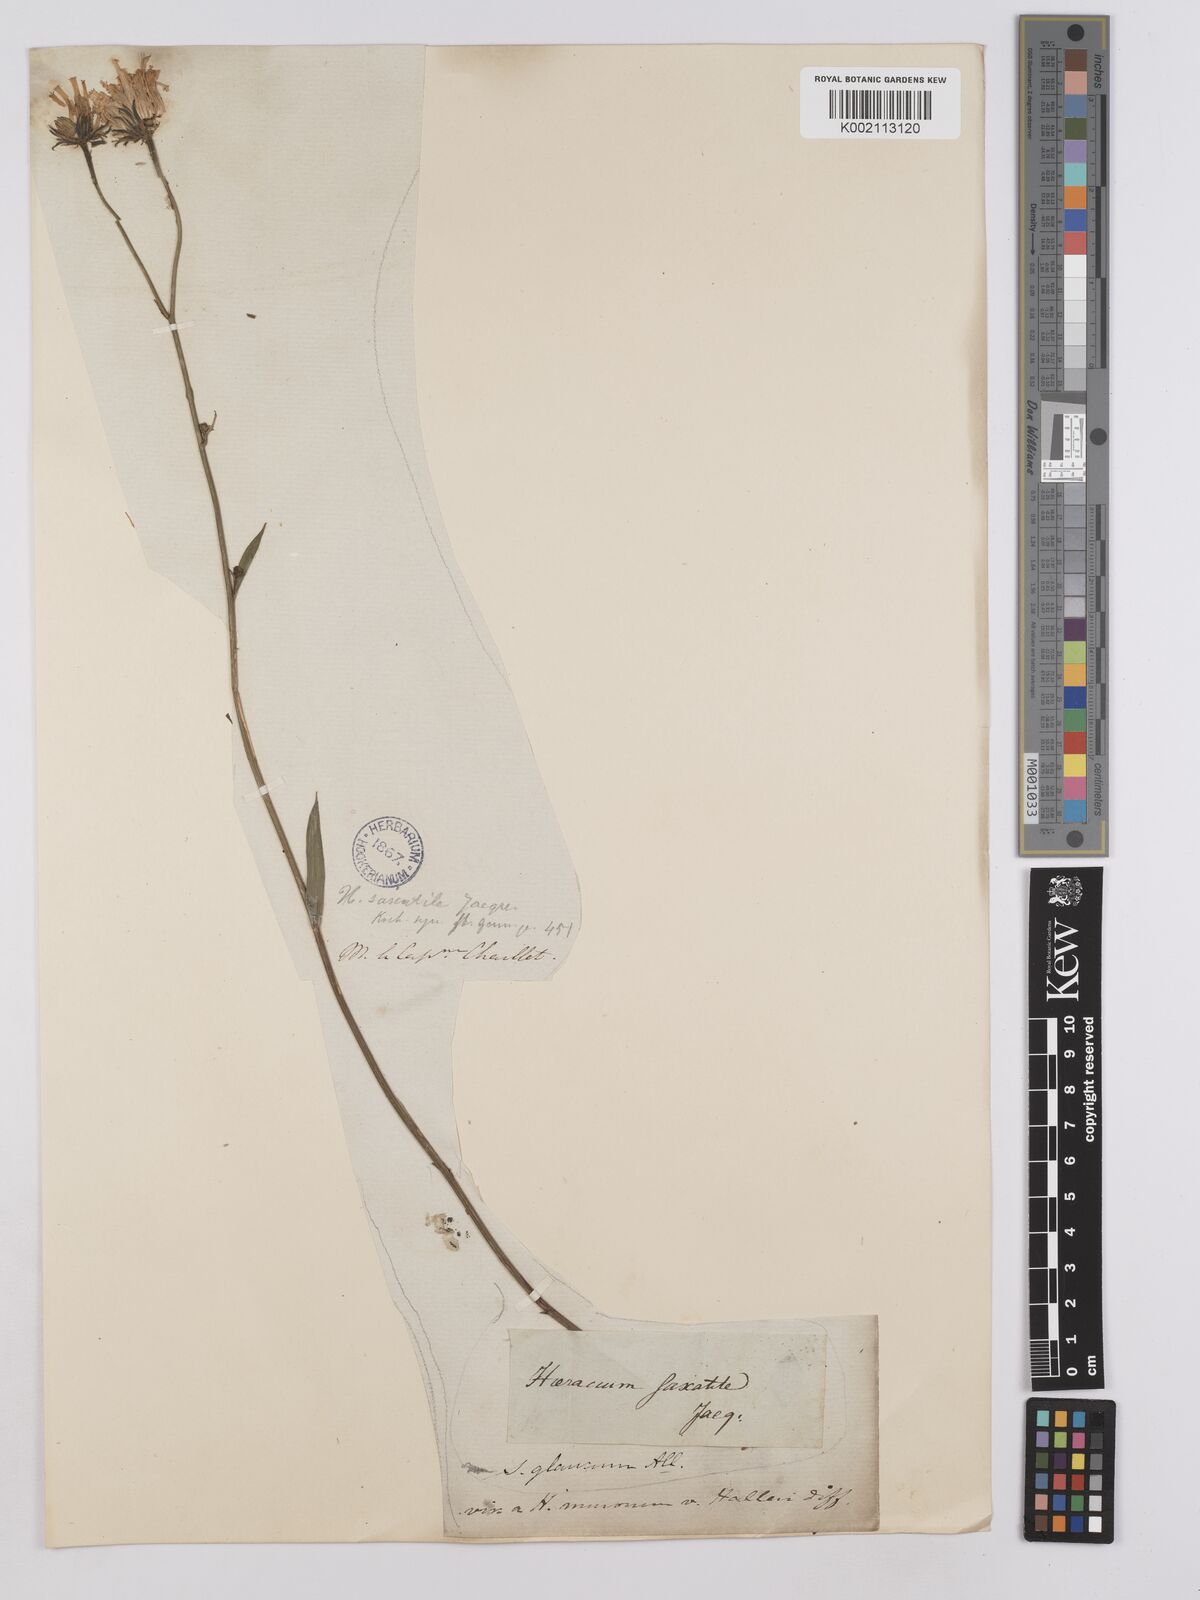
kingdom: Plantae
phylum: Tracheophyta
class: Magnoliopsida
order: Asterales
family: Asteraceae
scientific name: Asteraceae
